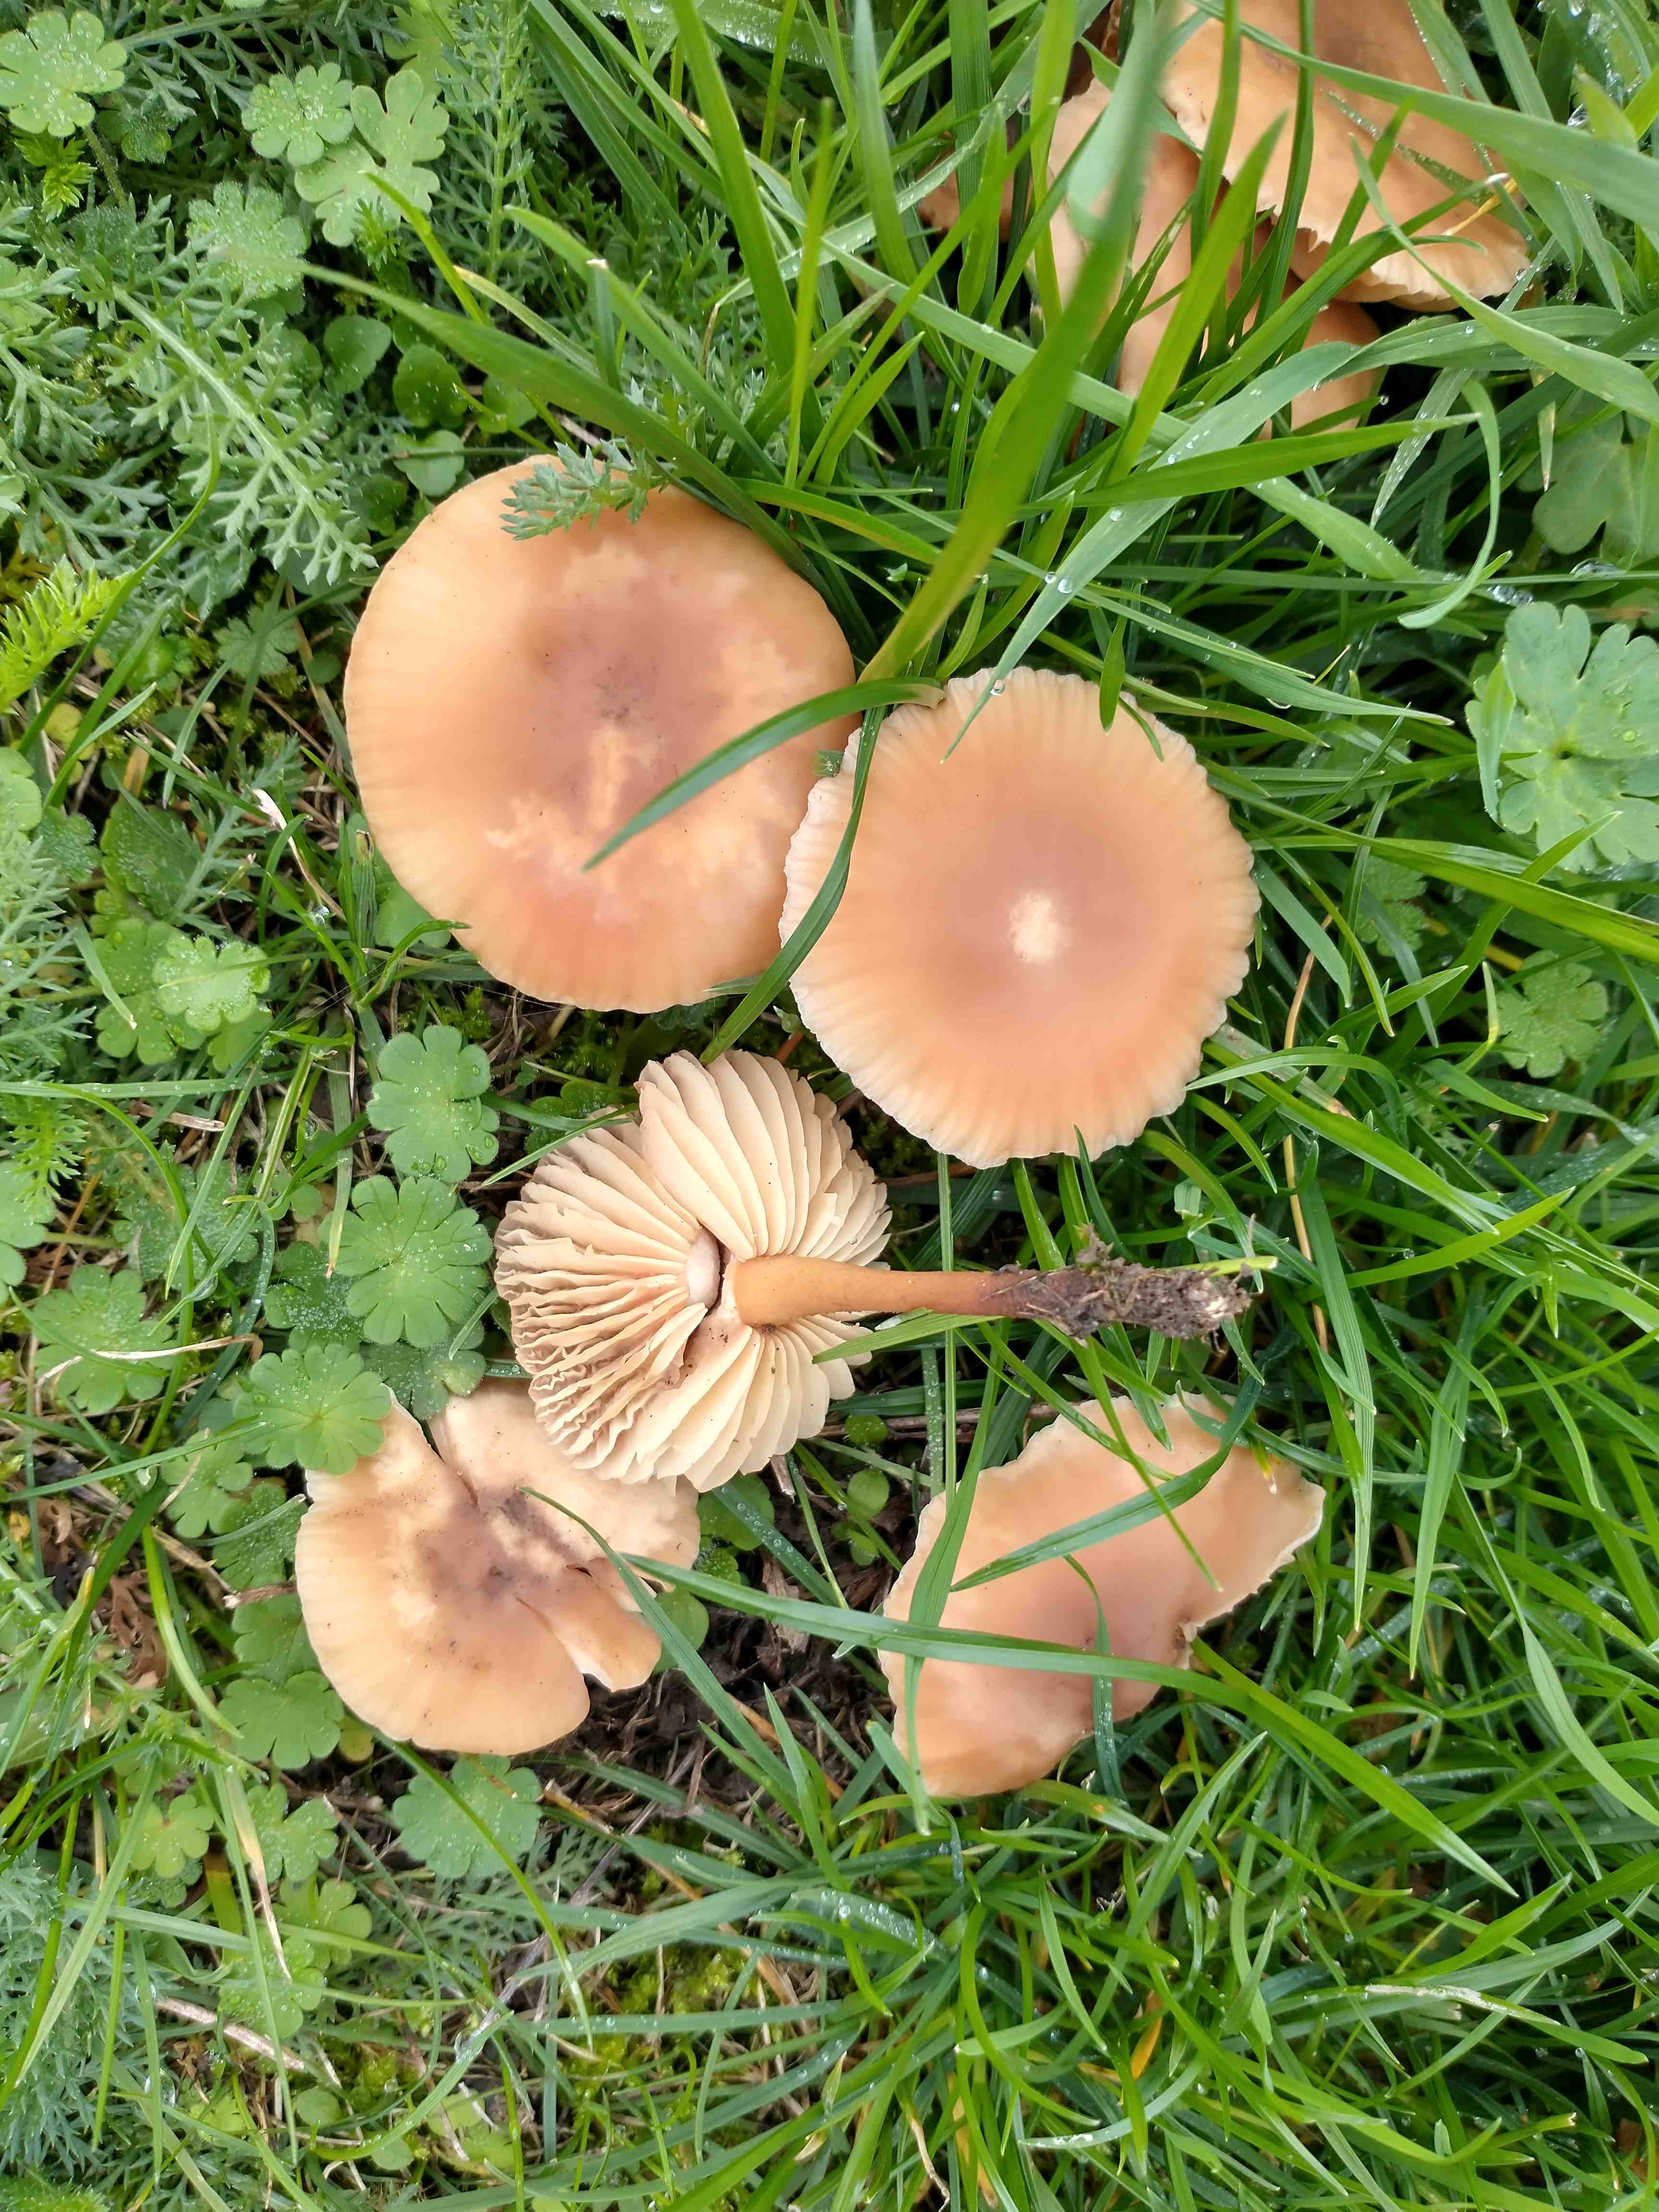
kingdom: Fungi
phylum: Basidiomycota
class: Agaricomycetes
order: Agaricales
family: Marasmiaceae
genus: Marasmius
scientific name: Marasmius oreades
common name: elledans-bruskhat
